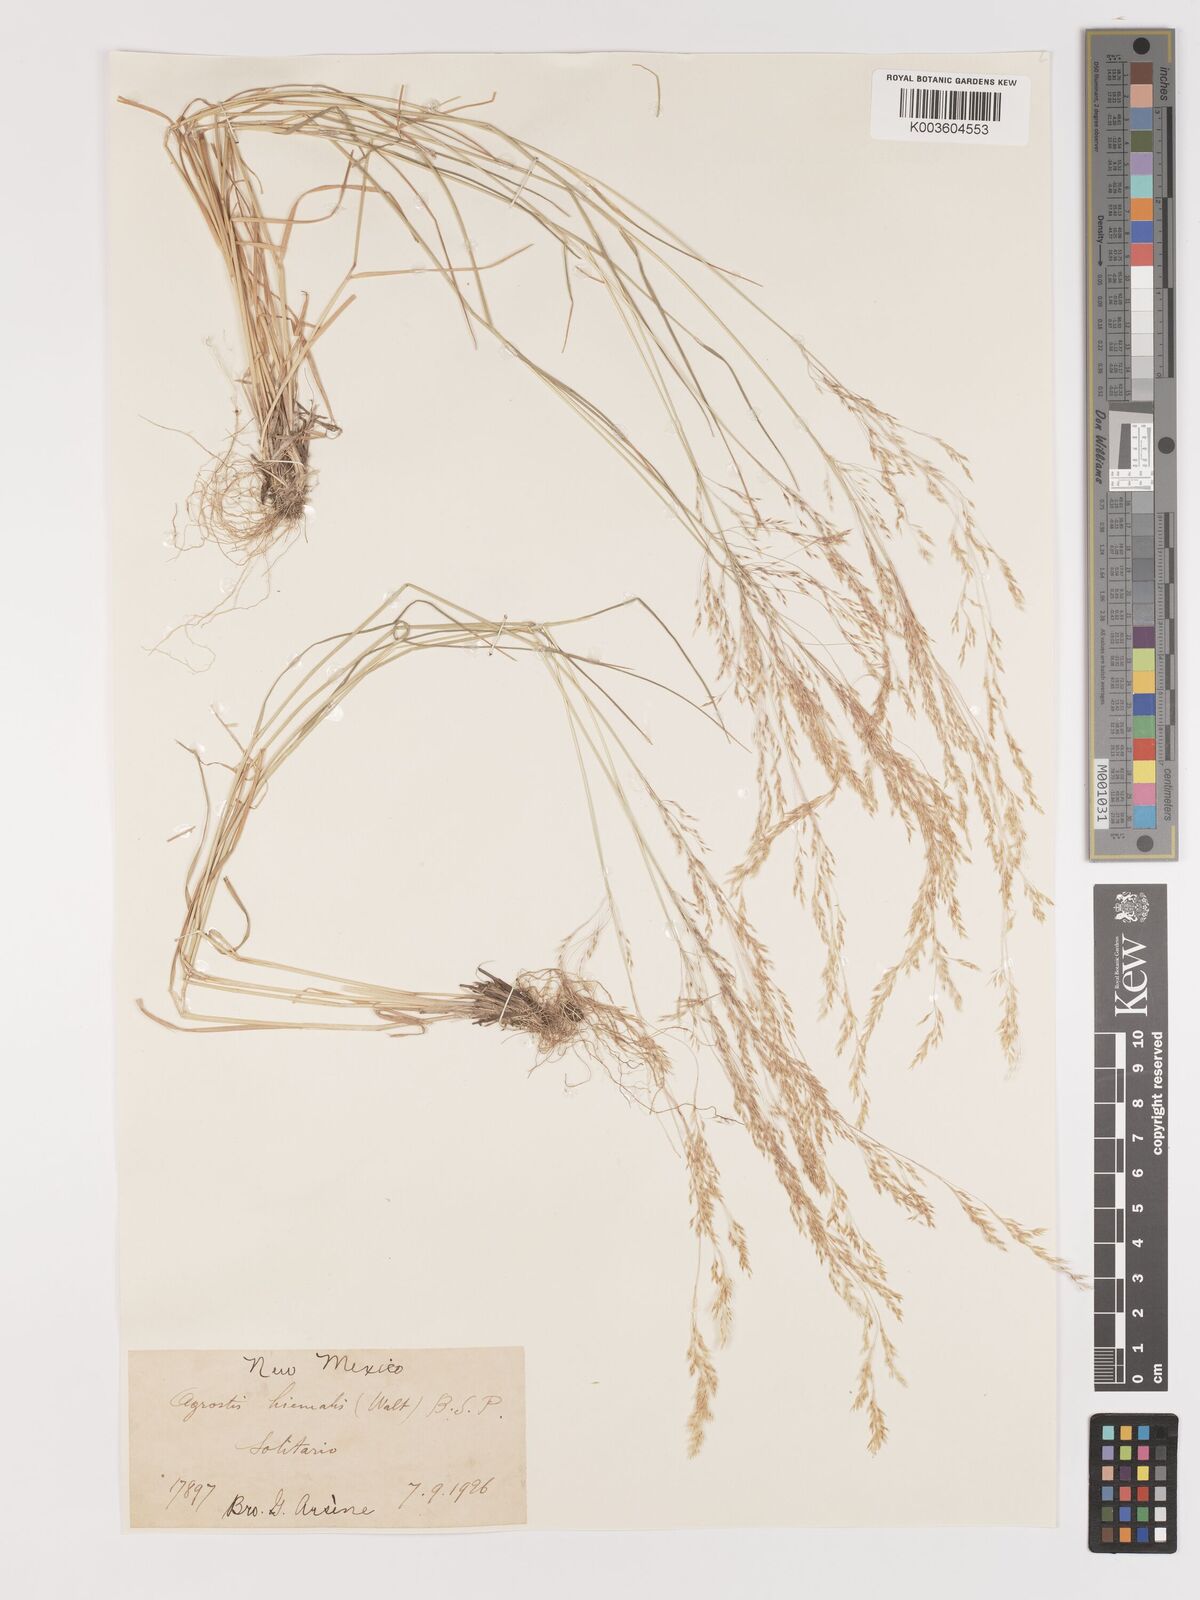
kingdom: Plantae
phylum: Tracheophyta
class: Liliopsida
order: Poales
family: Poaceae
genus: Agrostis
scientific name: Agrostis hyemalis
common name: Small bent
